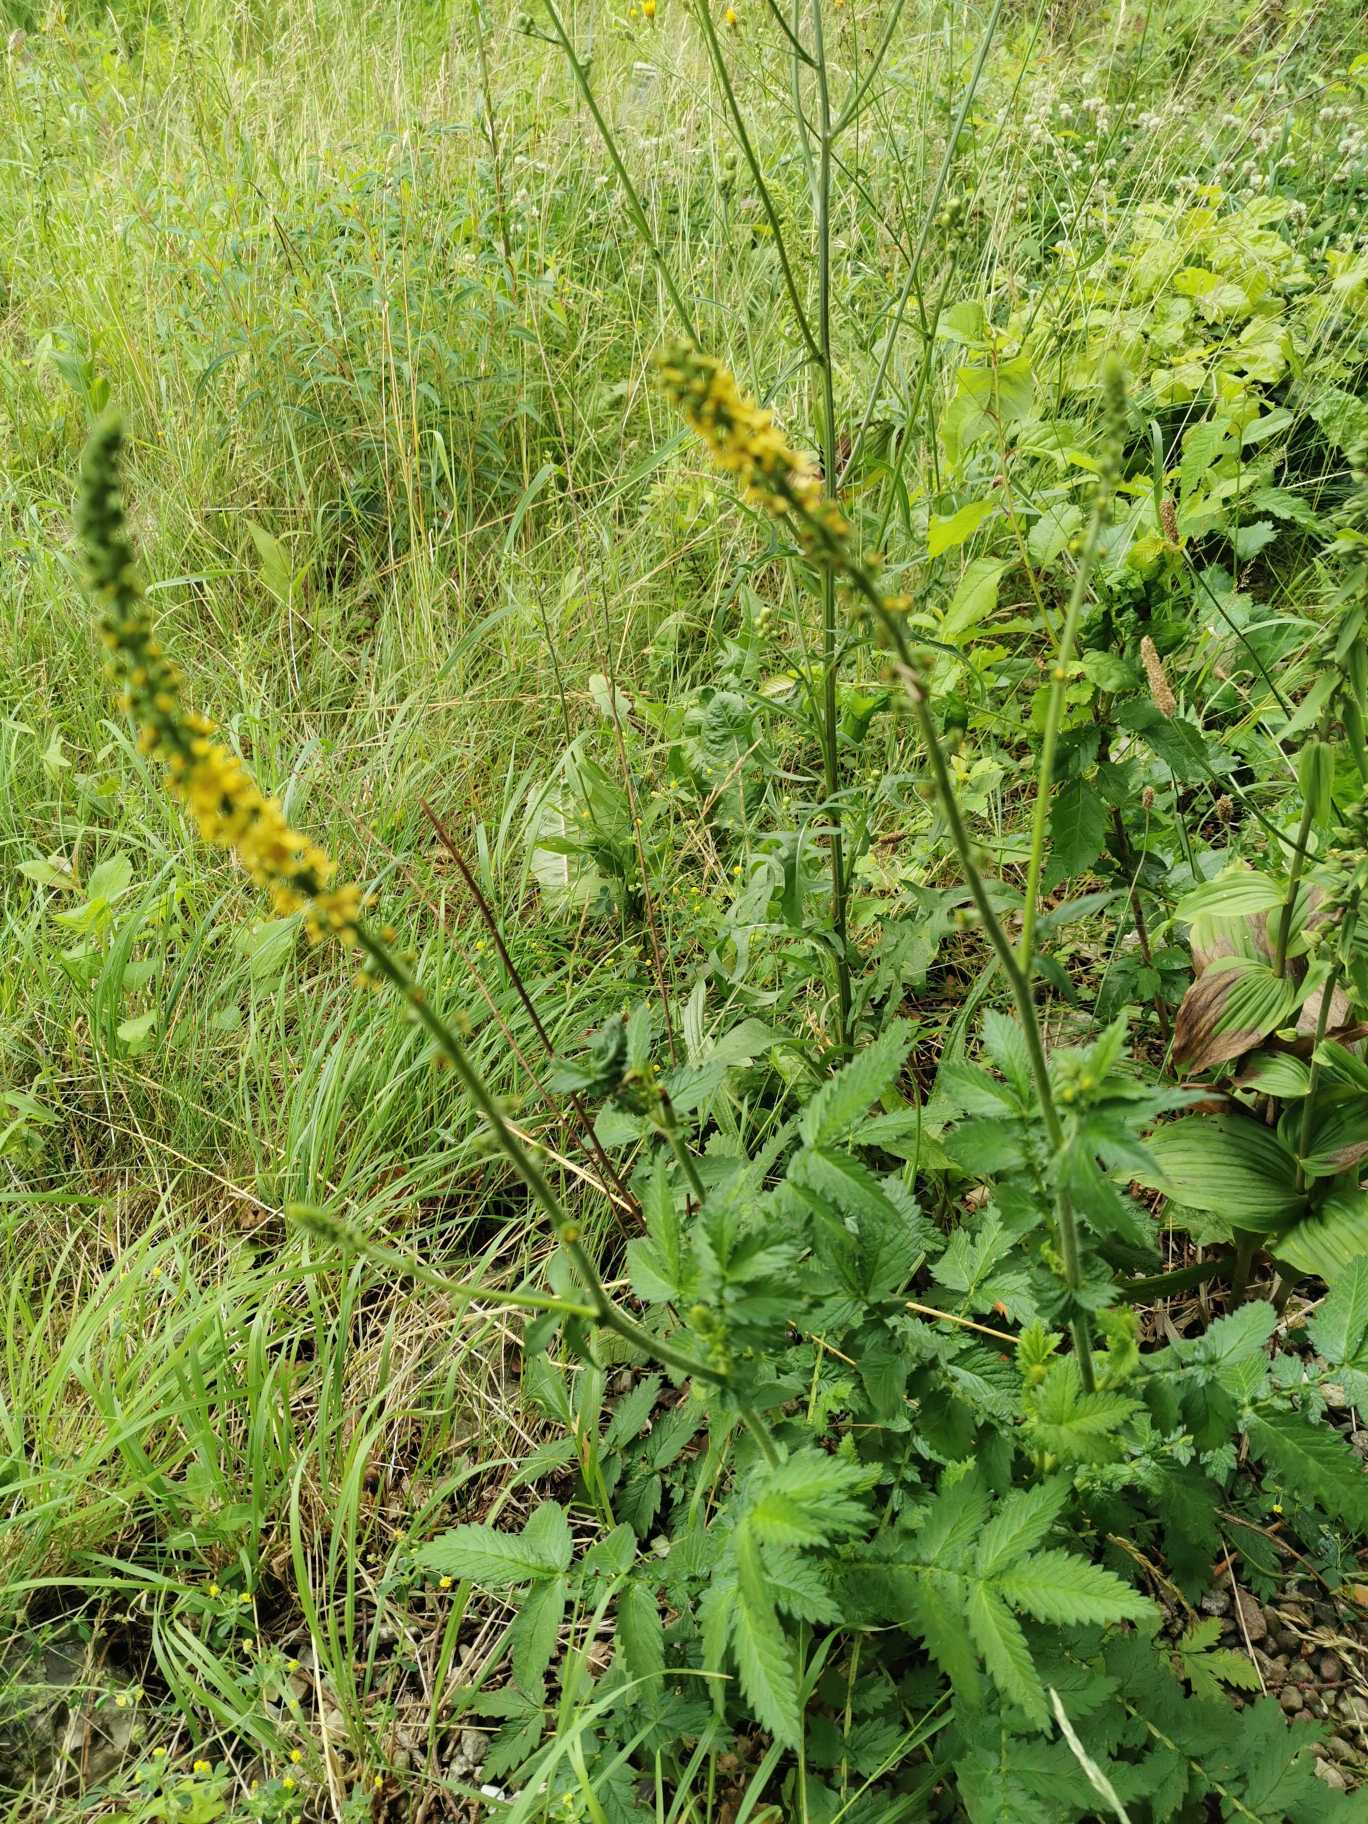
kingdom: Plantae
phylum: Tracheophyta
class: Magnoliopsida
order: Rosales
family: Rosaceae
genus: Agrimonia
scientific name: Agrimonia
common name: Agermåneslægten
